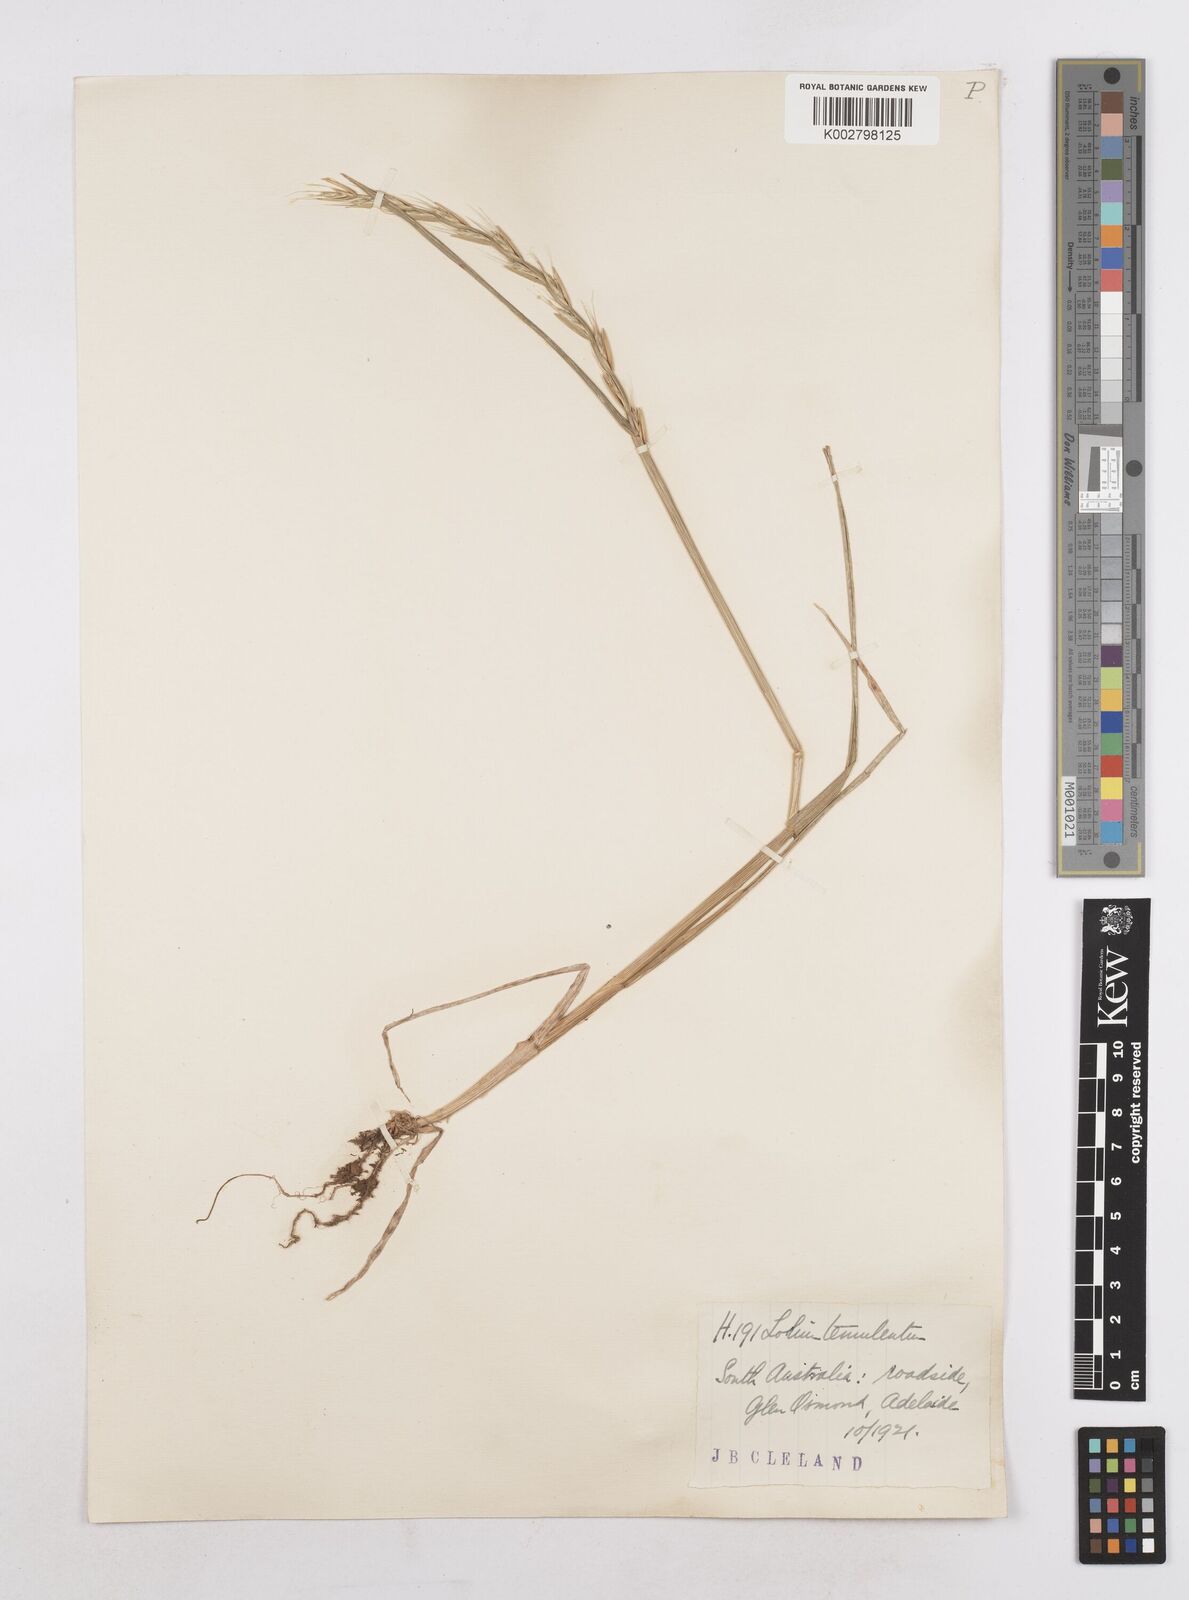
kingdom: Plantae
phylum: Tracheophyta
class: Liliopsida
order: Poales
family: Poaceae
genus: Lolium
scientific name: Lolium temulentum
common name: Darnel
